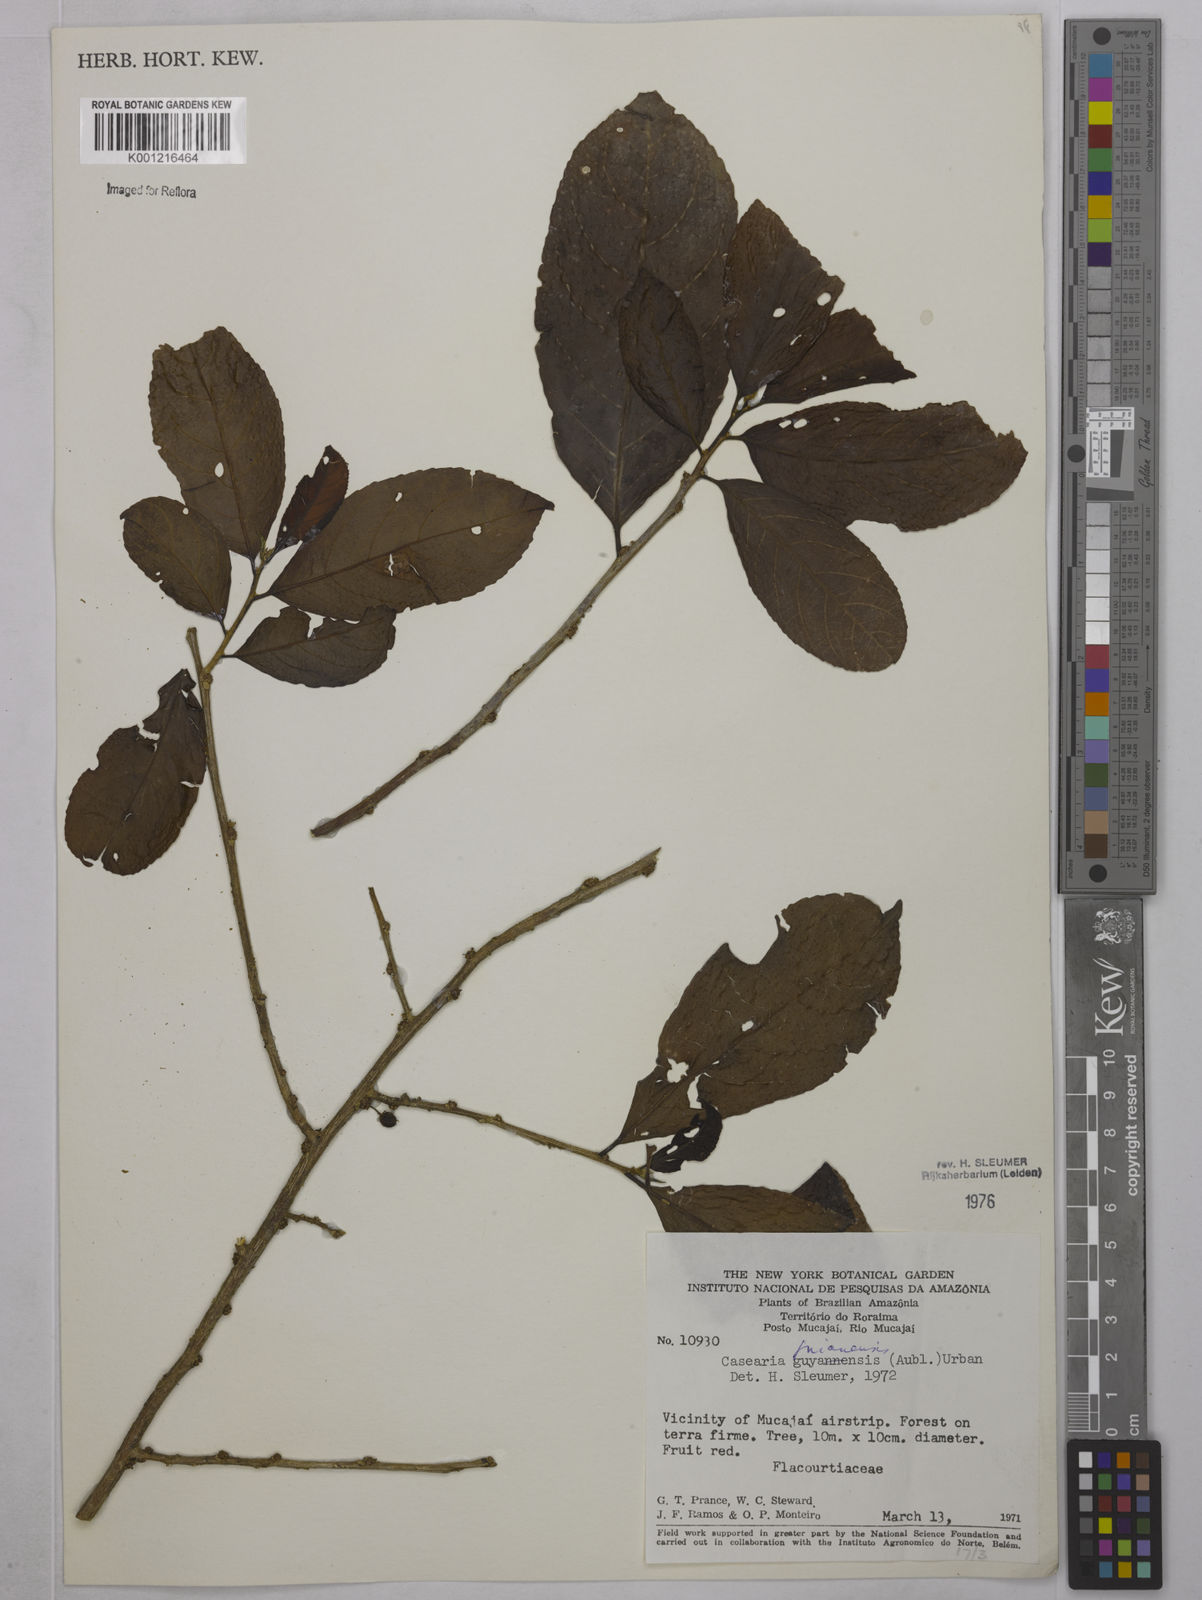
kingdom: Plantae
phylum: Tracheophyta
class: Magnoliopsida
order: Malpighiales
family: Salicaceae
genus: Casearia
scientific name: Casearia guianensis
